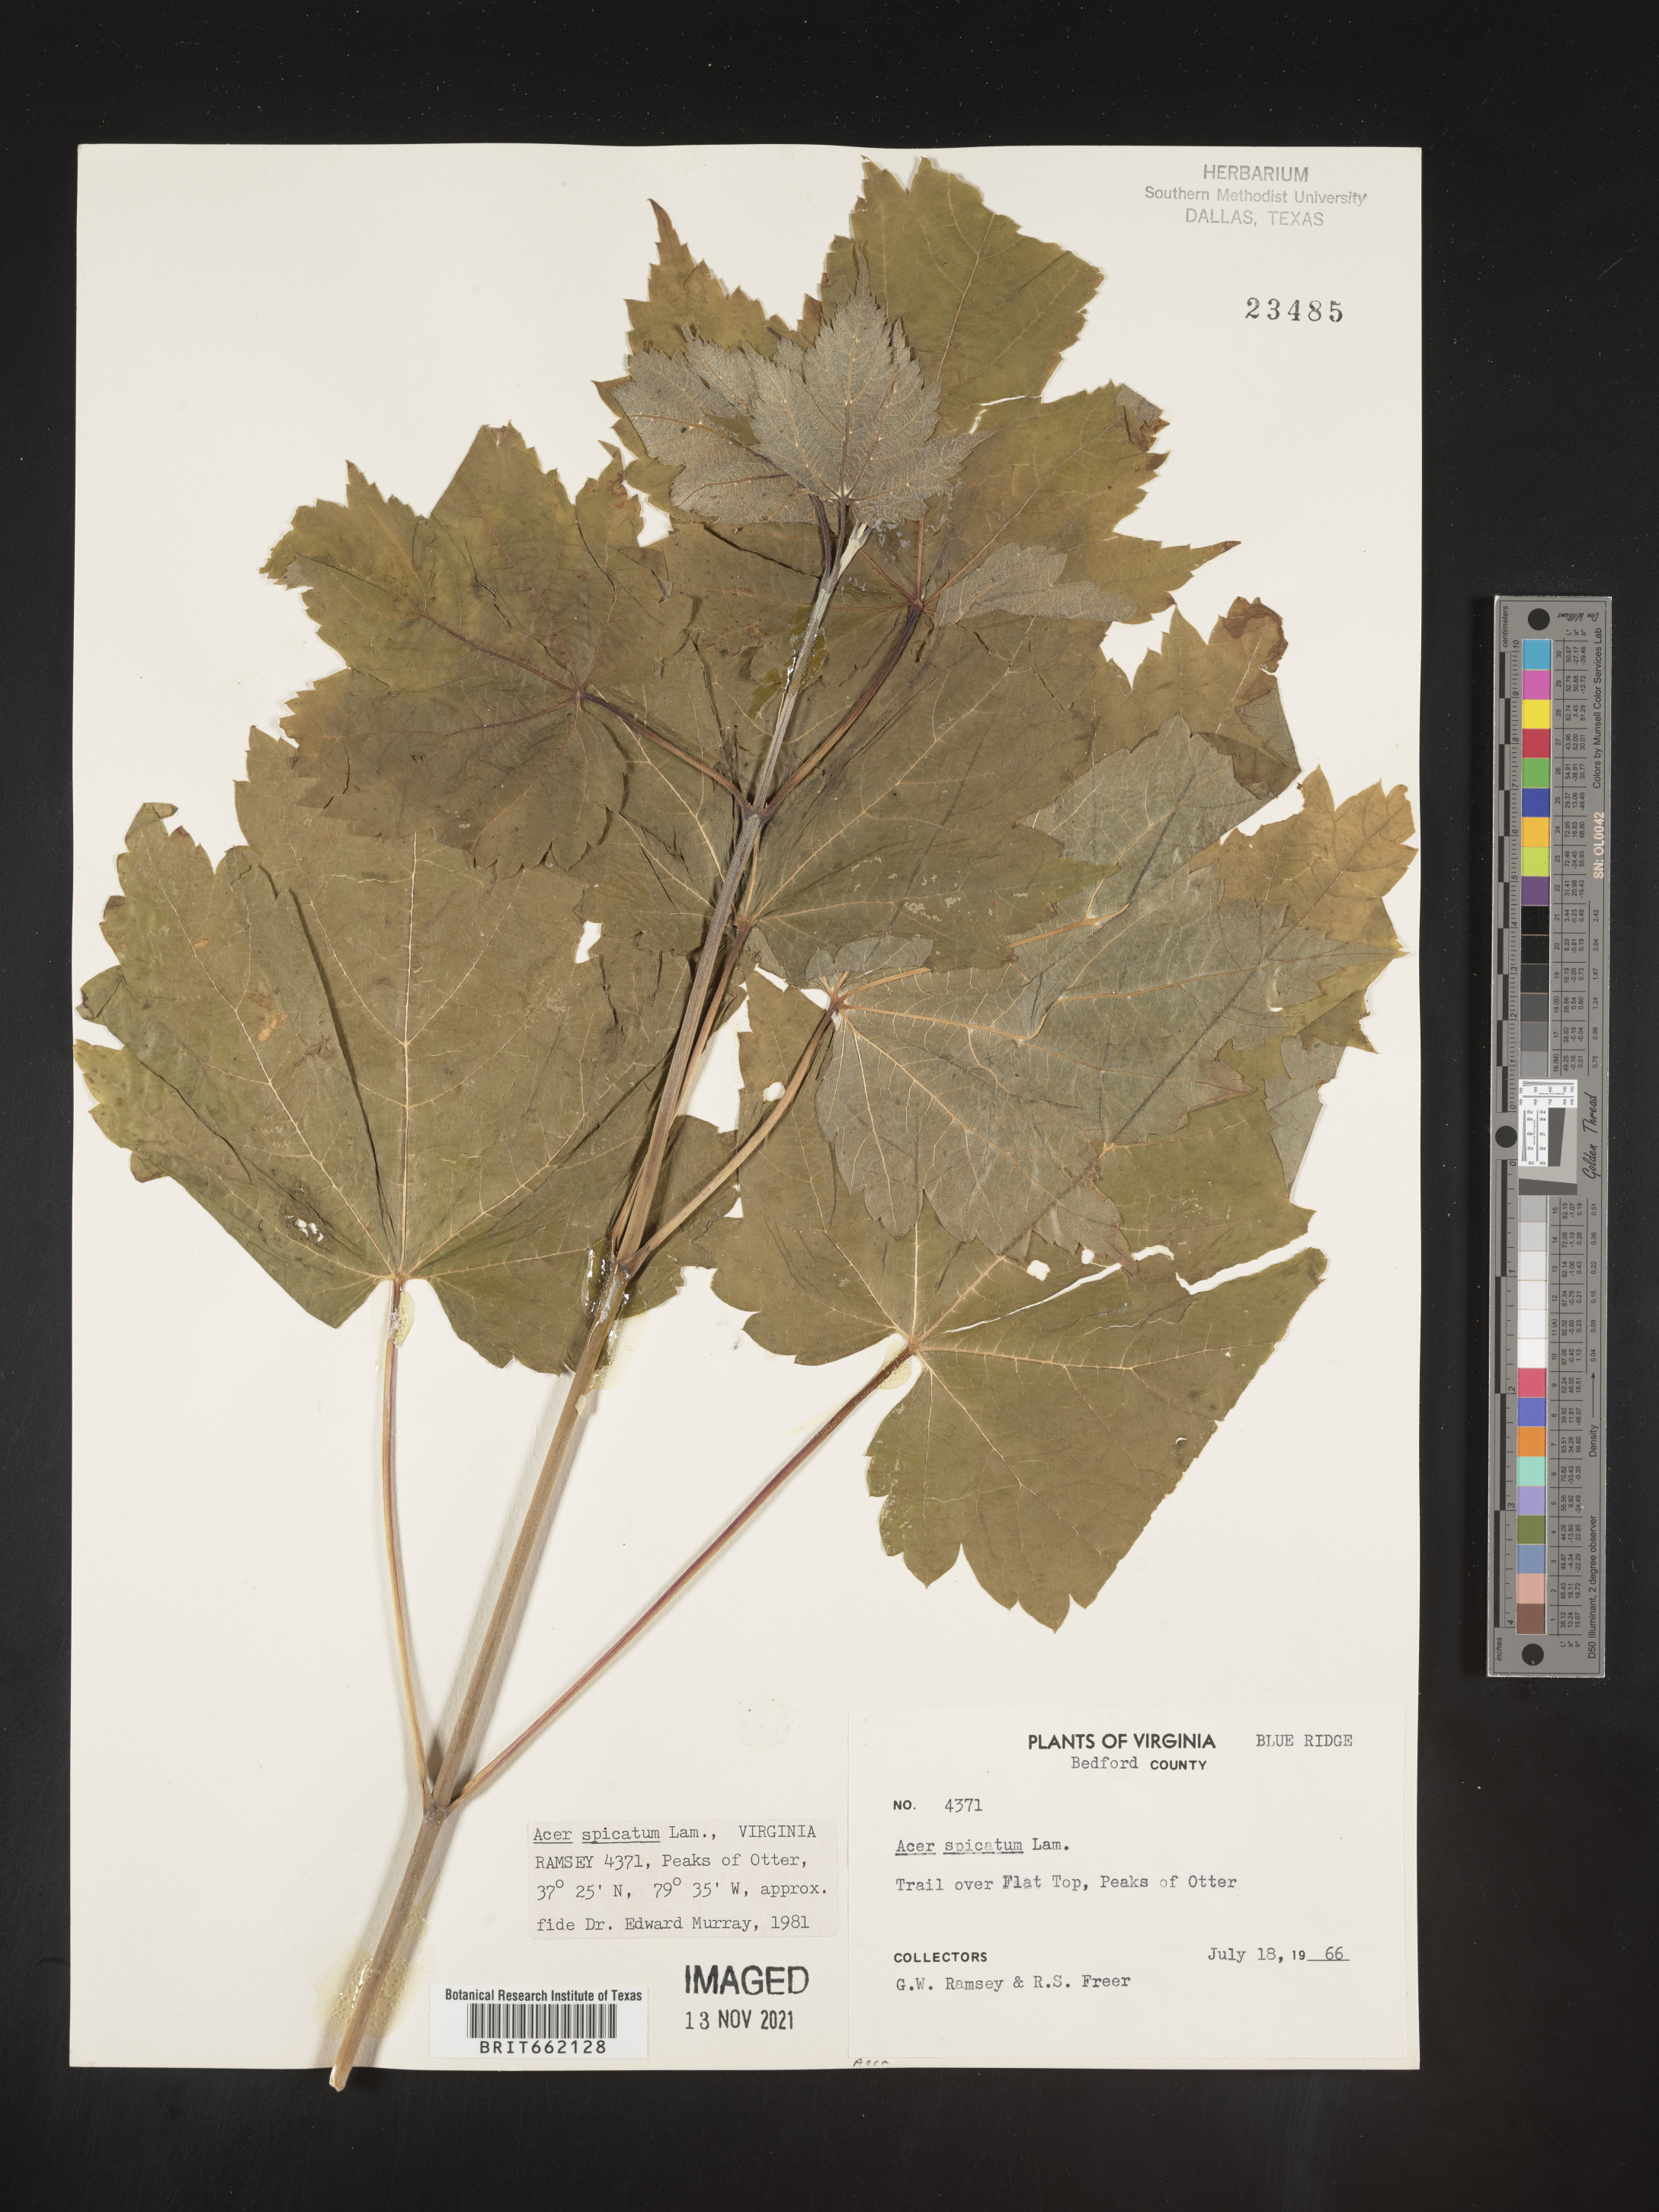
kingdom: Plantae
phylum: Tracheophyta
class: Magnoliopsida
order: Sapindales
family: Sapindaceae
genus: Acer
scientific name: Acer spicatum
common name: Mountain maple
